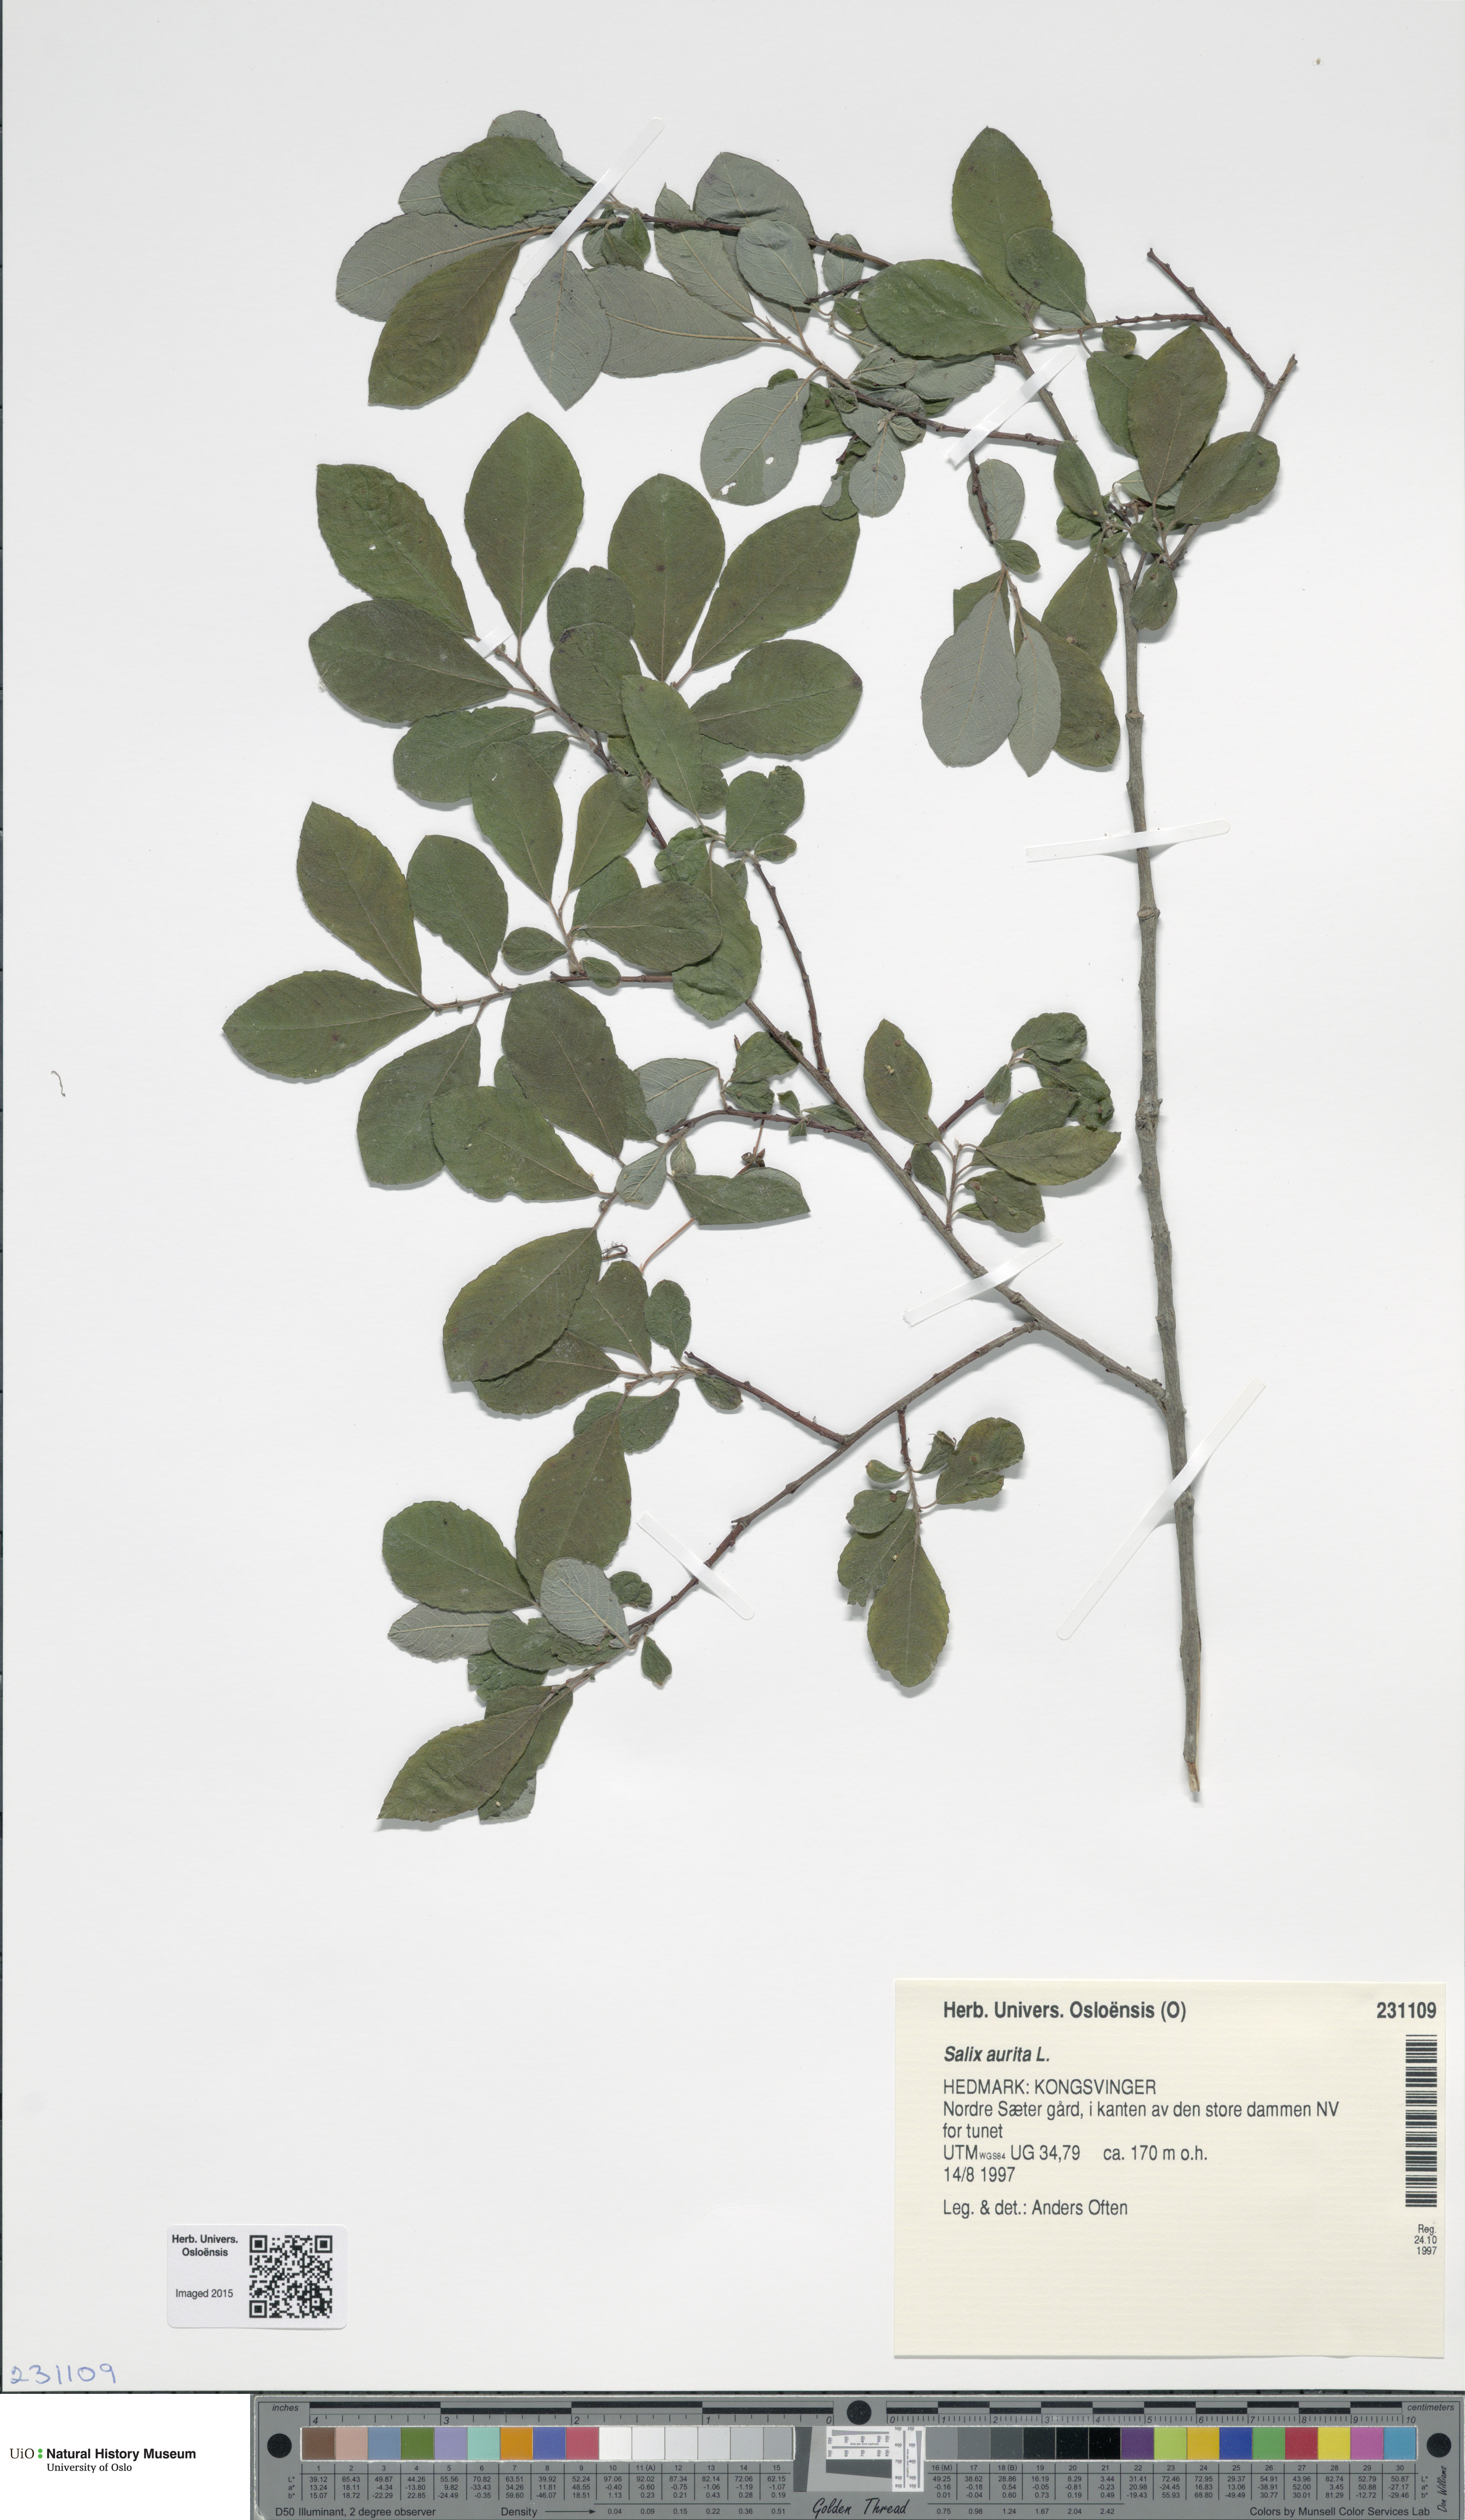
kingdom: Plantae
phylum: Tracheophyta
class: Magnoliopsida
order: Malpighiales
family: Salicaceae
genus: Salix
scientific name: Salix aurita
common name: Eared willow
